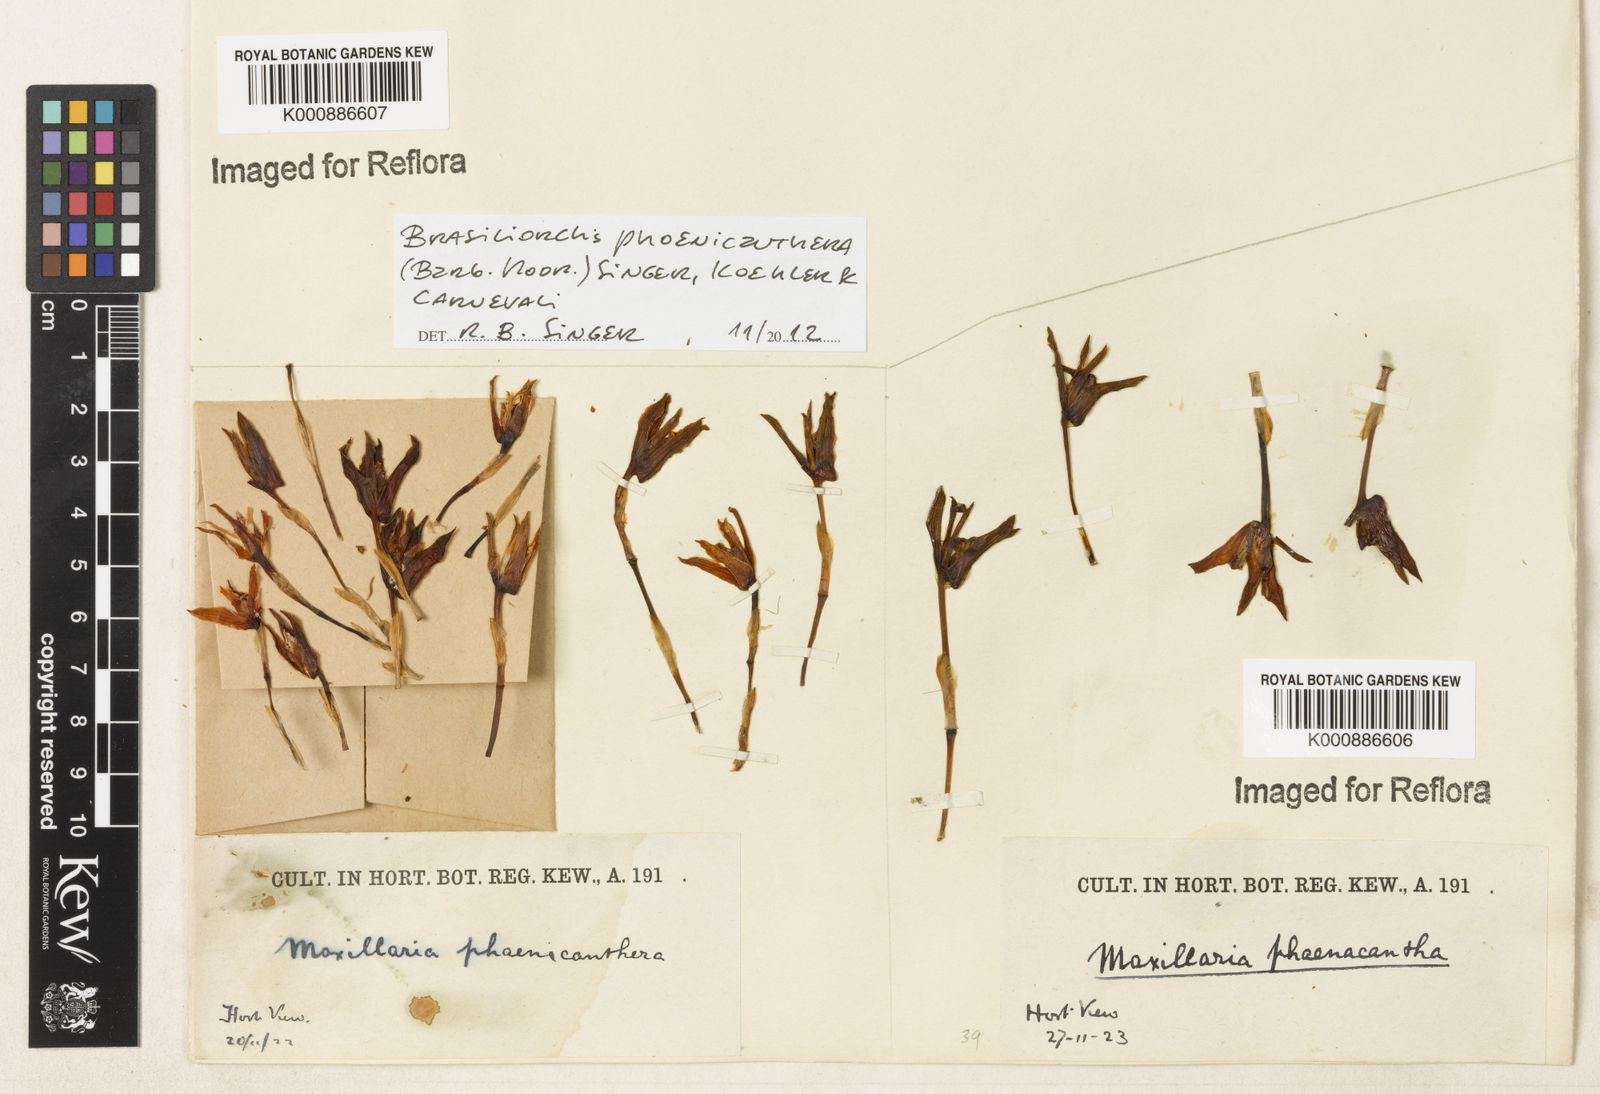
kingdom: Plantae
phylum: Tracheophyta
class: Liliopsida
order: Asparagales
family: Orchidaceae
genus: Maxillaria
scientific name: Maxillaria phoenicanthera
